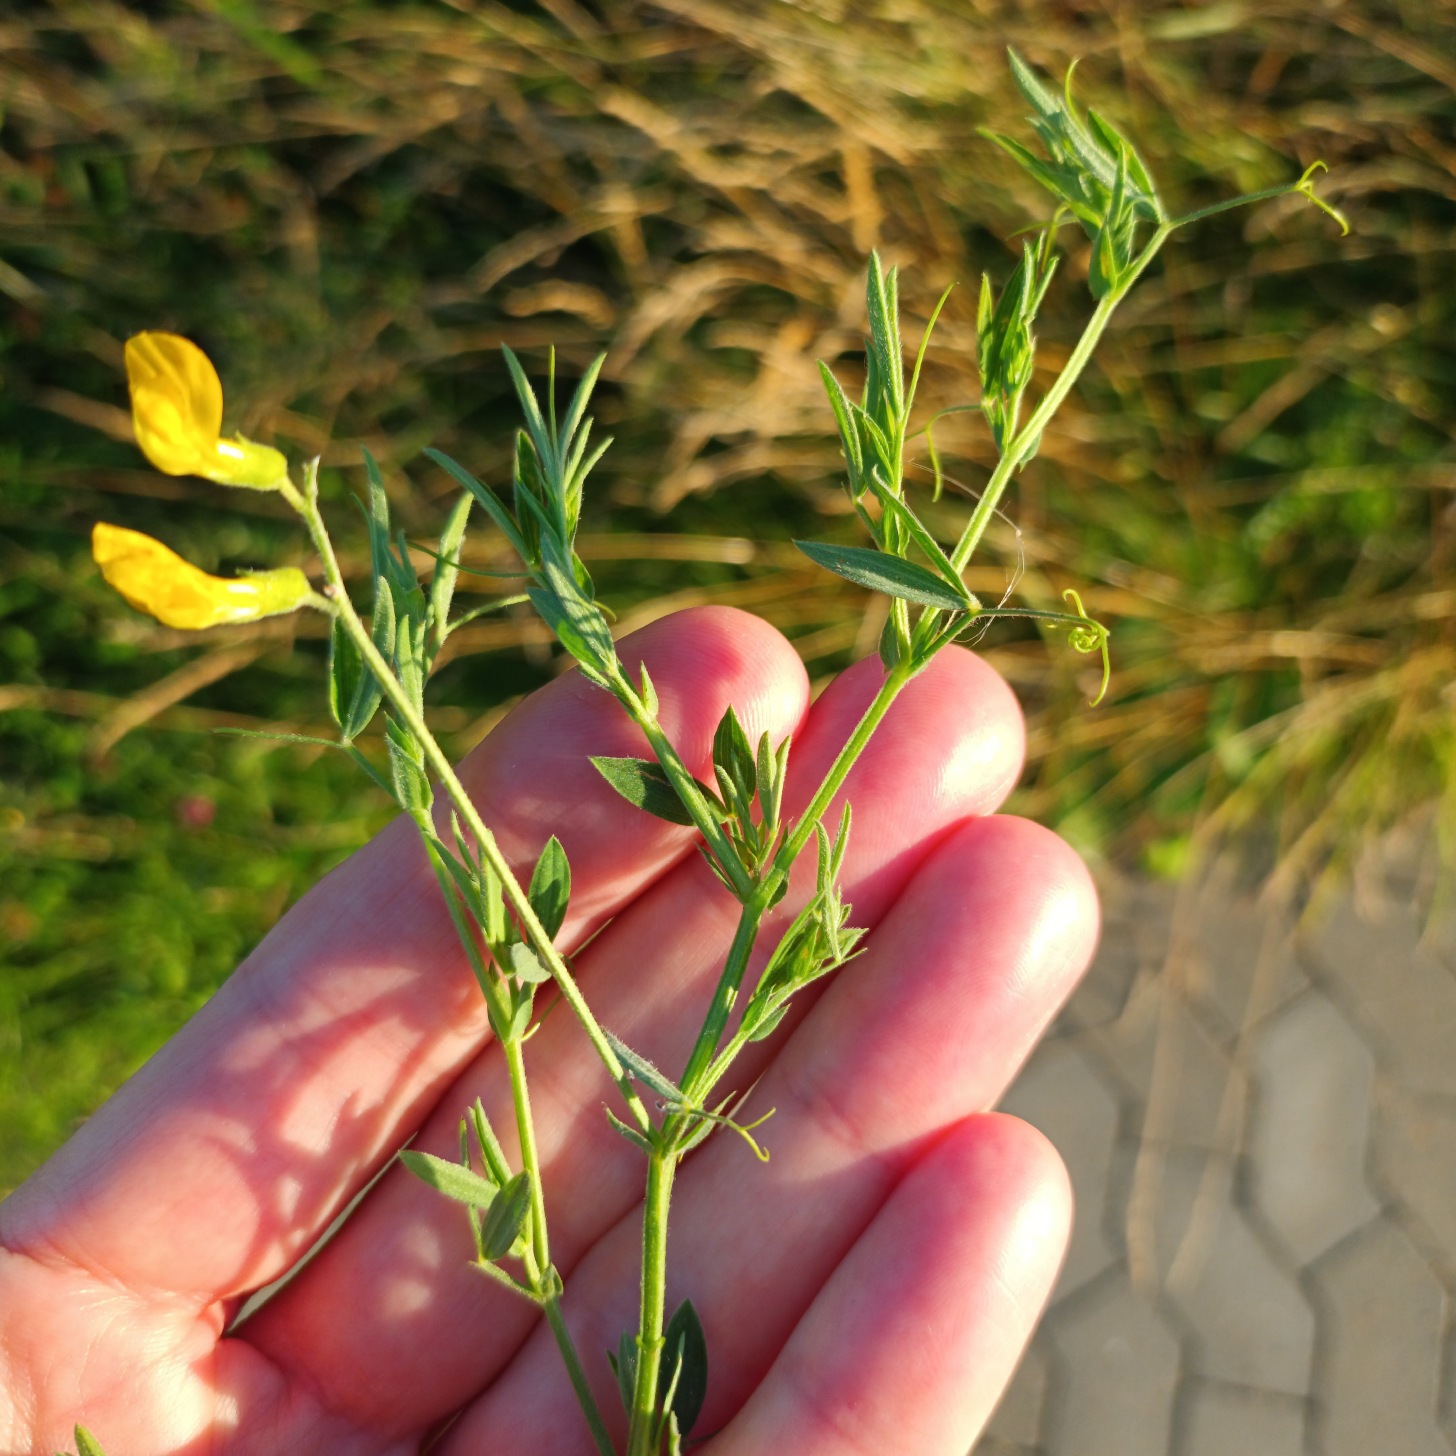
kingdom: Plantae
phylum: Tracheophyta
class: Magnoliopsida
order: Fabales
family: Fabaceae
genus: Lathyrus
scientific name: Lathyrus pratensis
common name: Gul fladbælg
